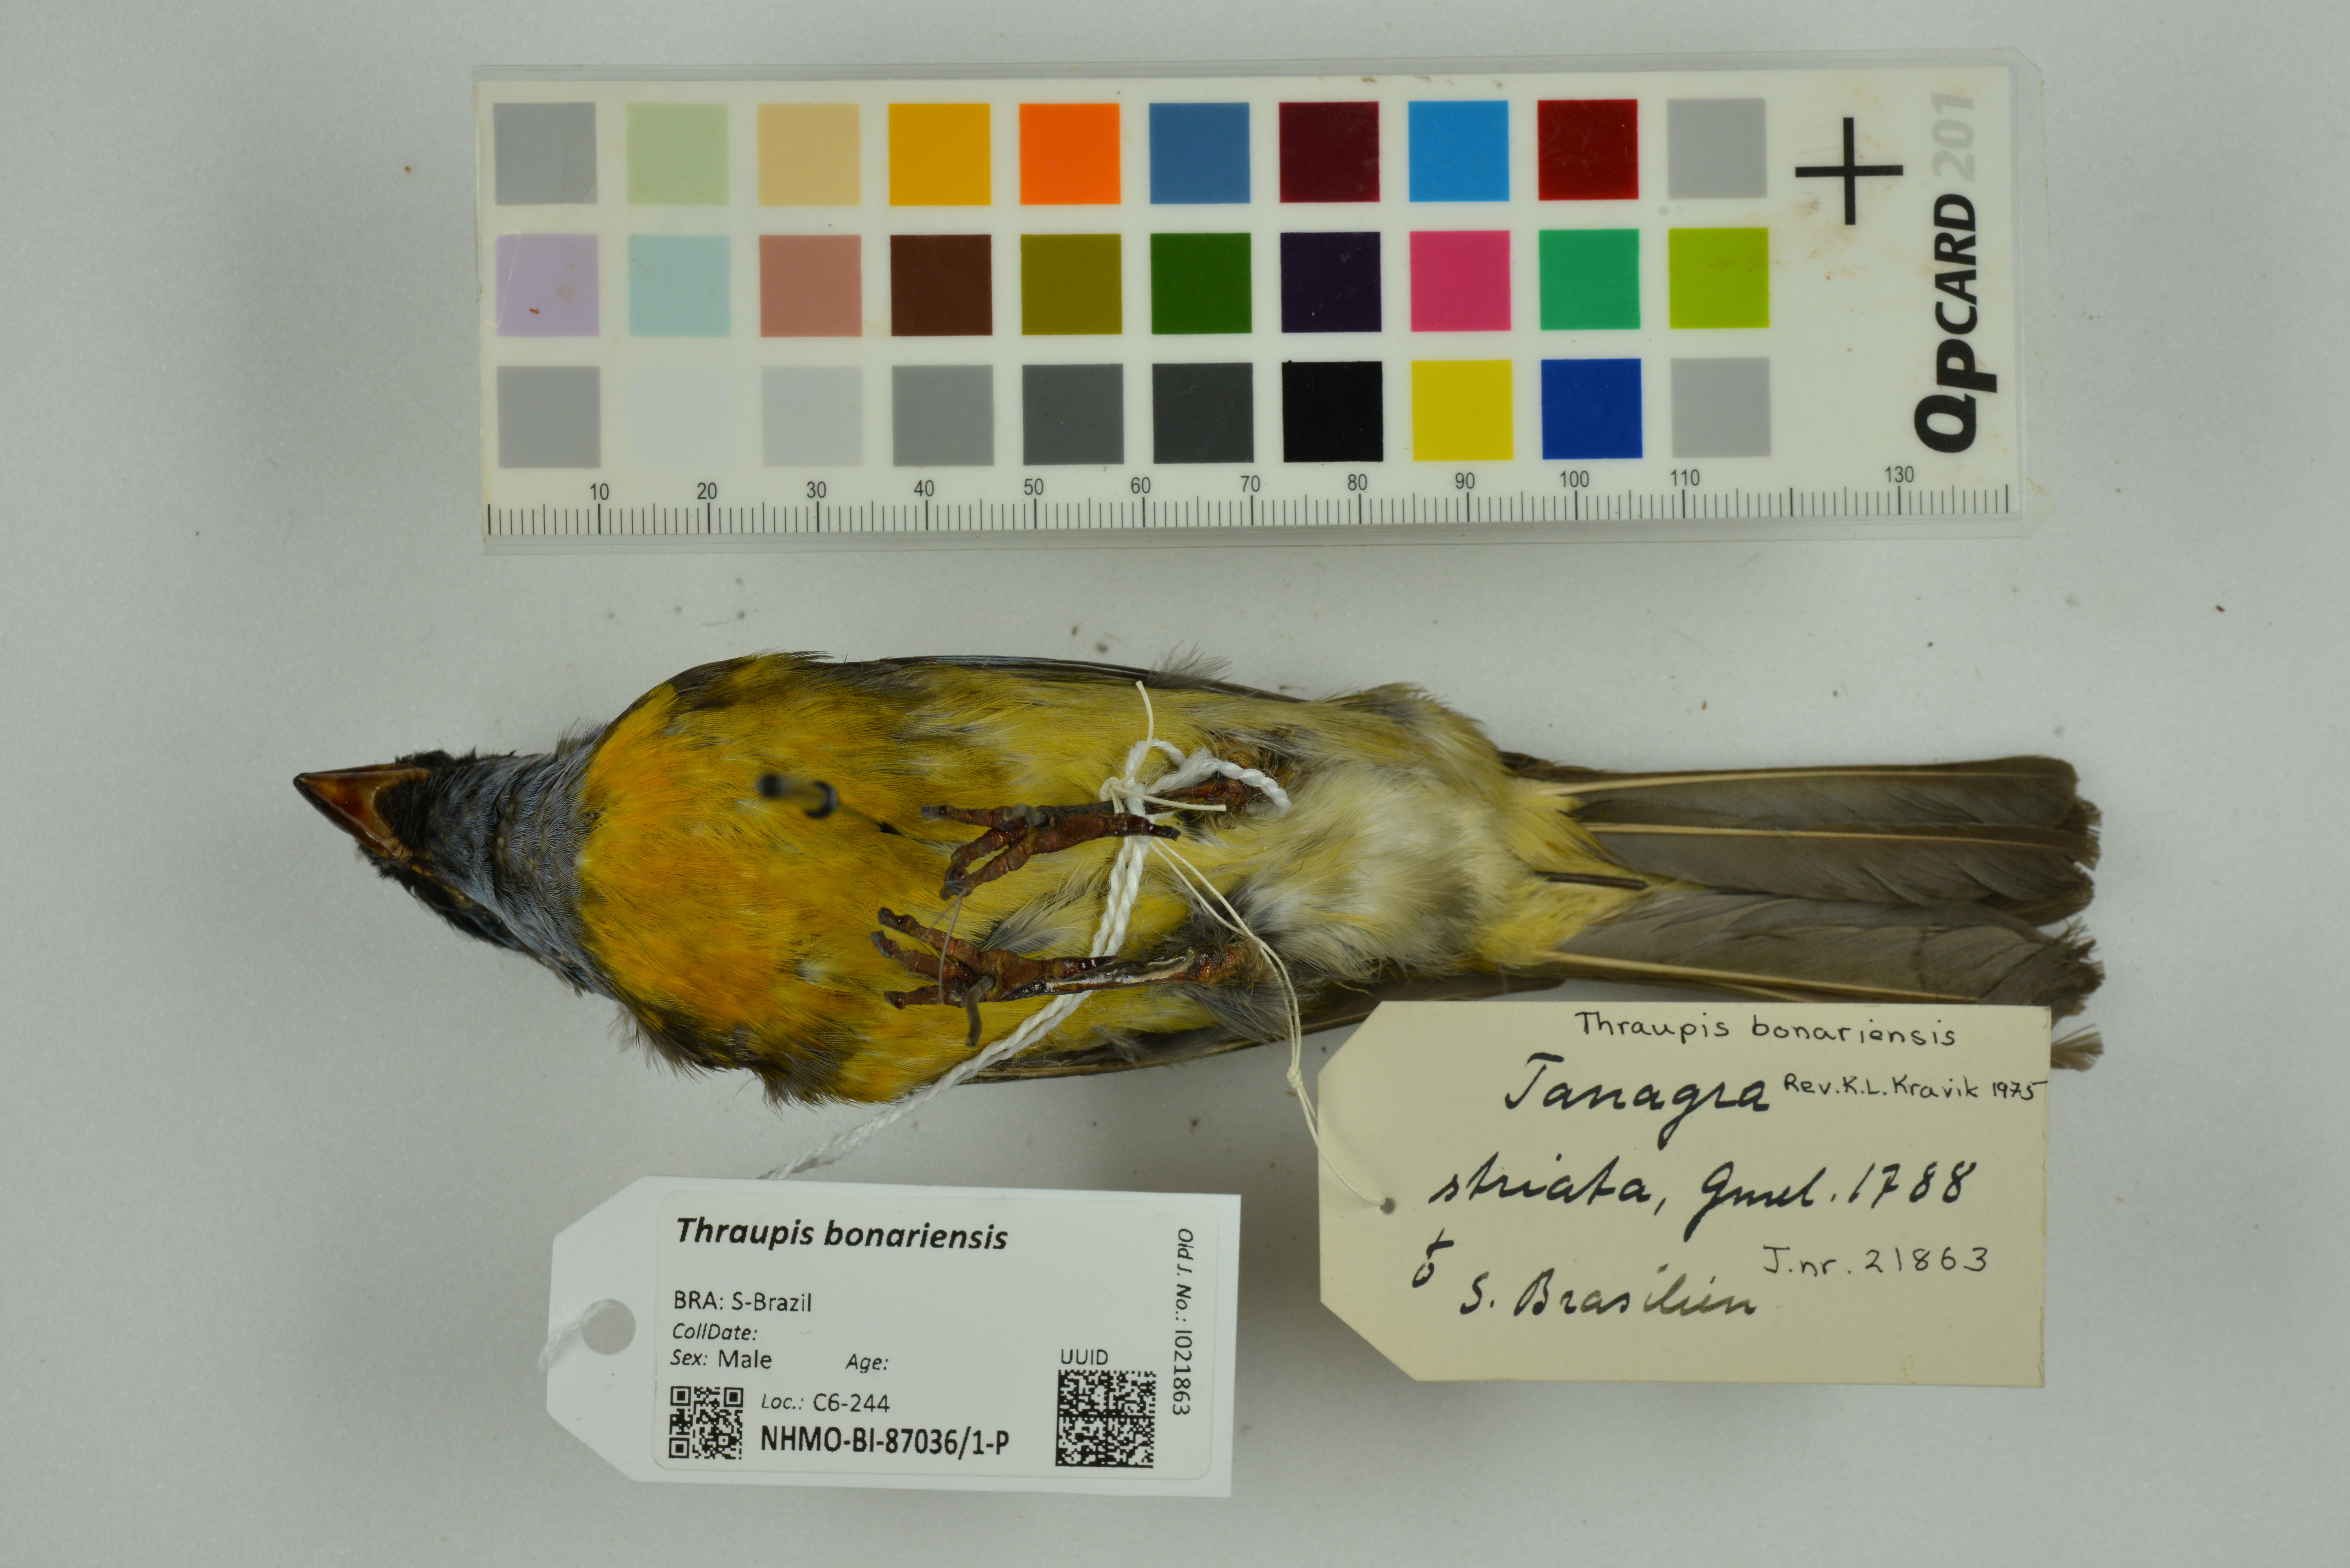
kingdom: Animalia
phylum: Chordata
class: Aves
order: Passeriformes
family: Thraupidae
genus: Rauenia
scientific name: Rauenia bonariensis
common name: Blue-and-yellow tanager
